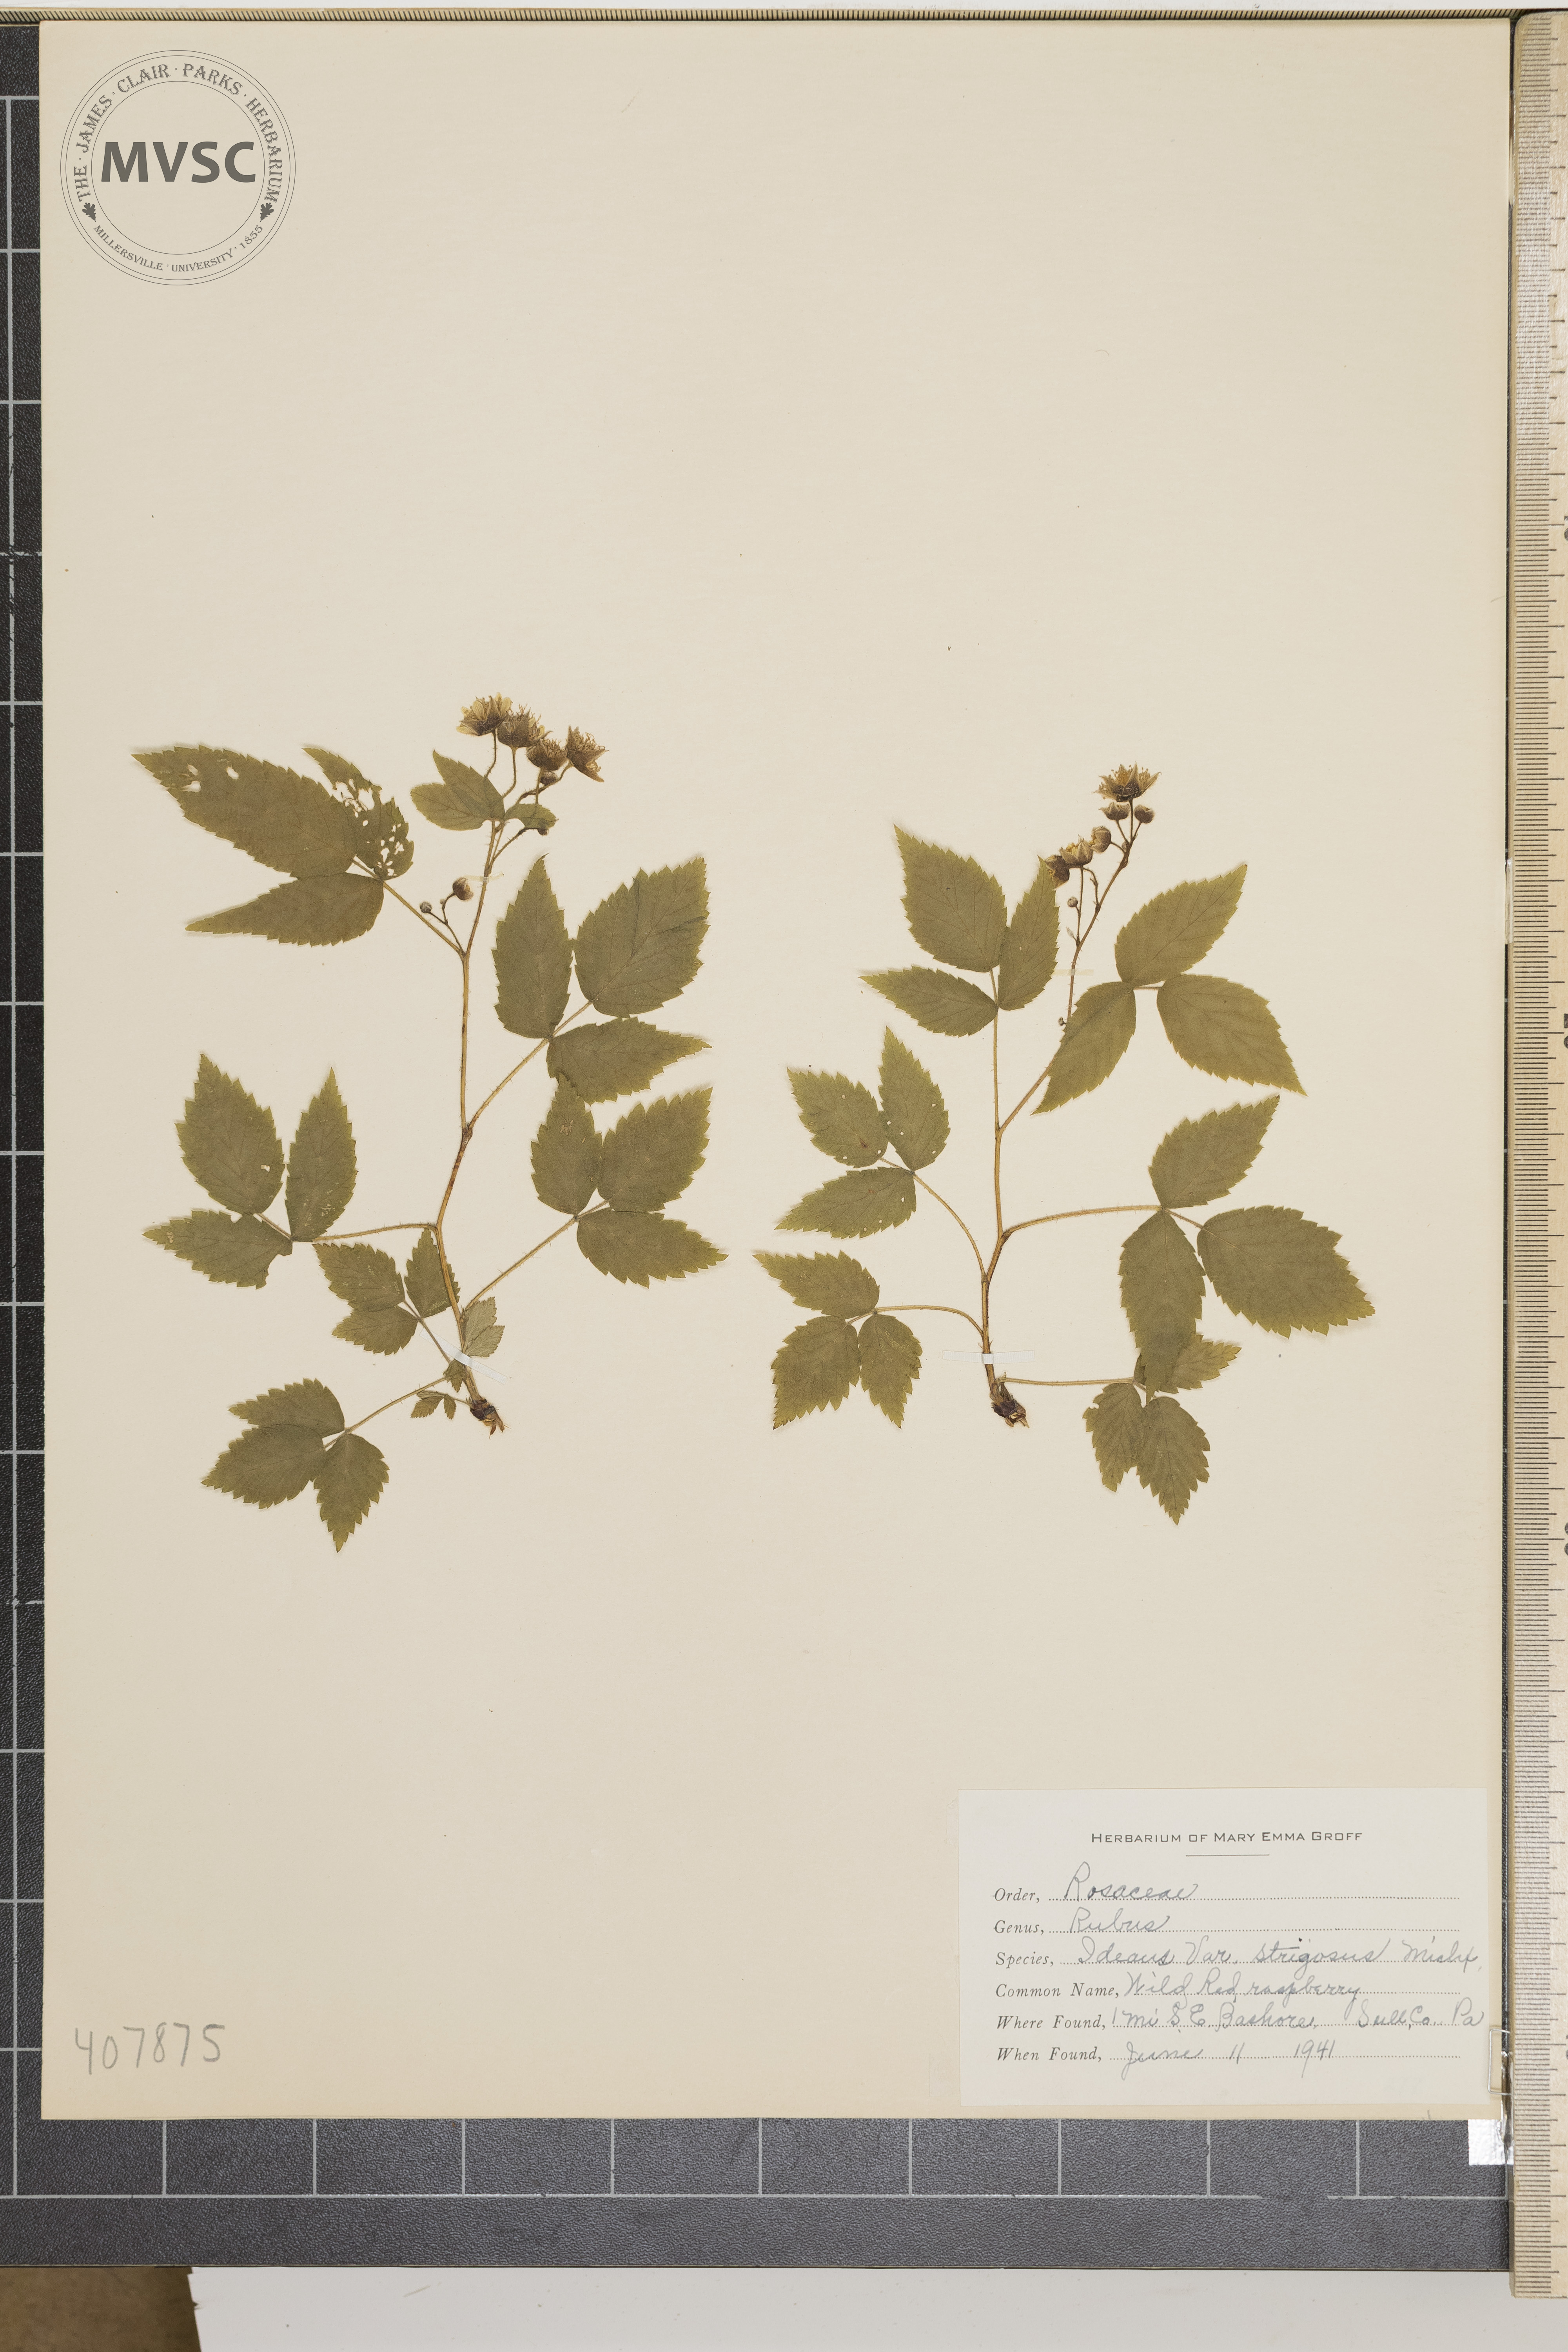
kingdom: Plantae
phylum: Tracheophyta
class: Magnoliopsida
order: Rosales
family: Rosaceae
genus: Rubus
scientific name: Rubus idaeus
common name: wild red raspberry
